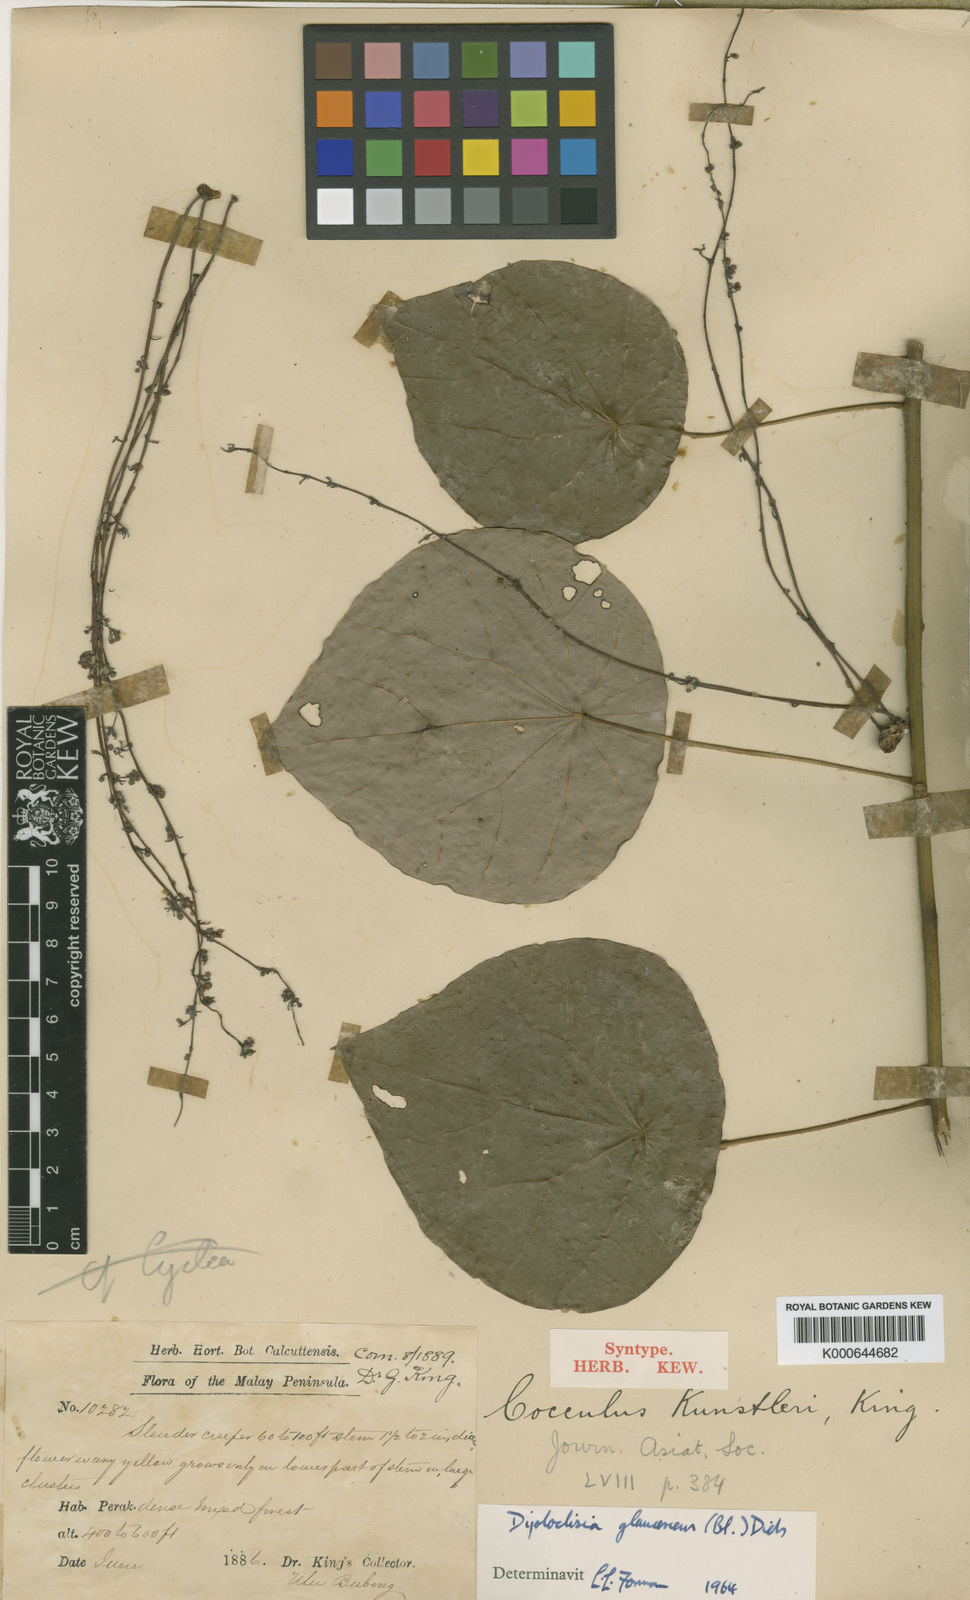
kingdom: Plantae
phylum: Tracheophyta
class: Magnoliopsida
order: Ranunculales
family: Menispermaceae
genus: Diploclisia
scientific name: Diploclisia glaucescens
